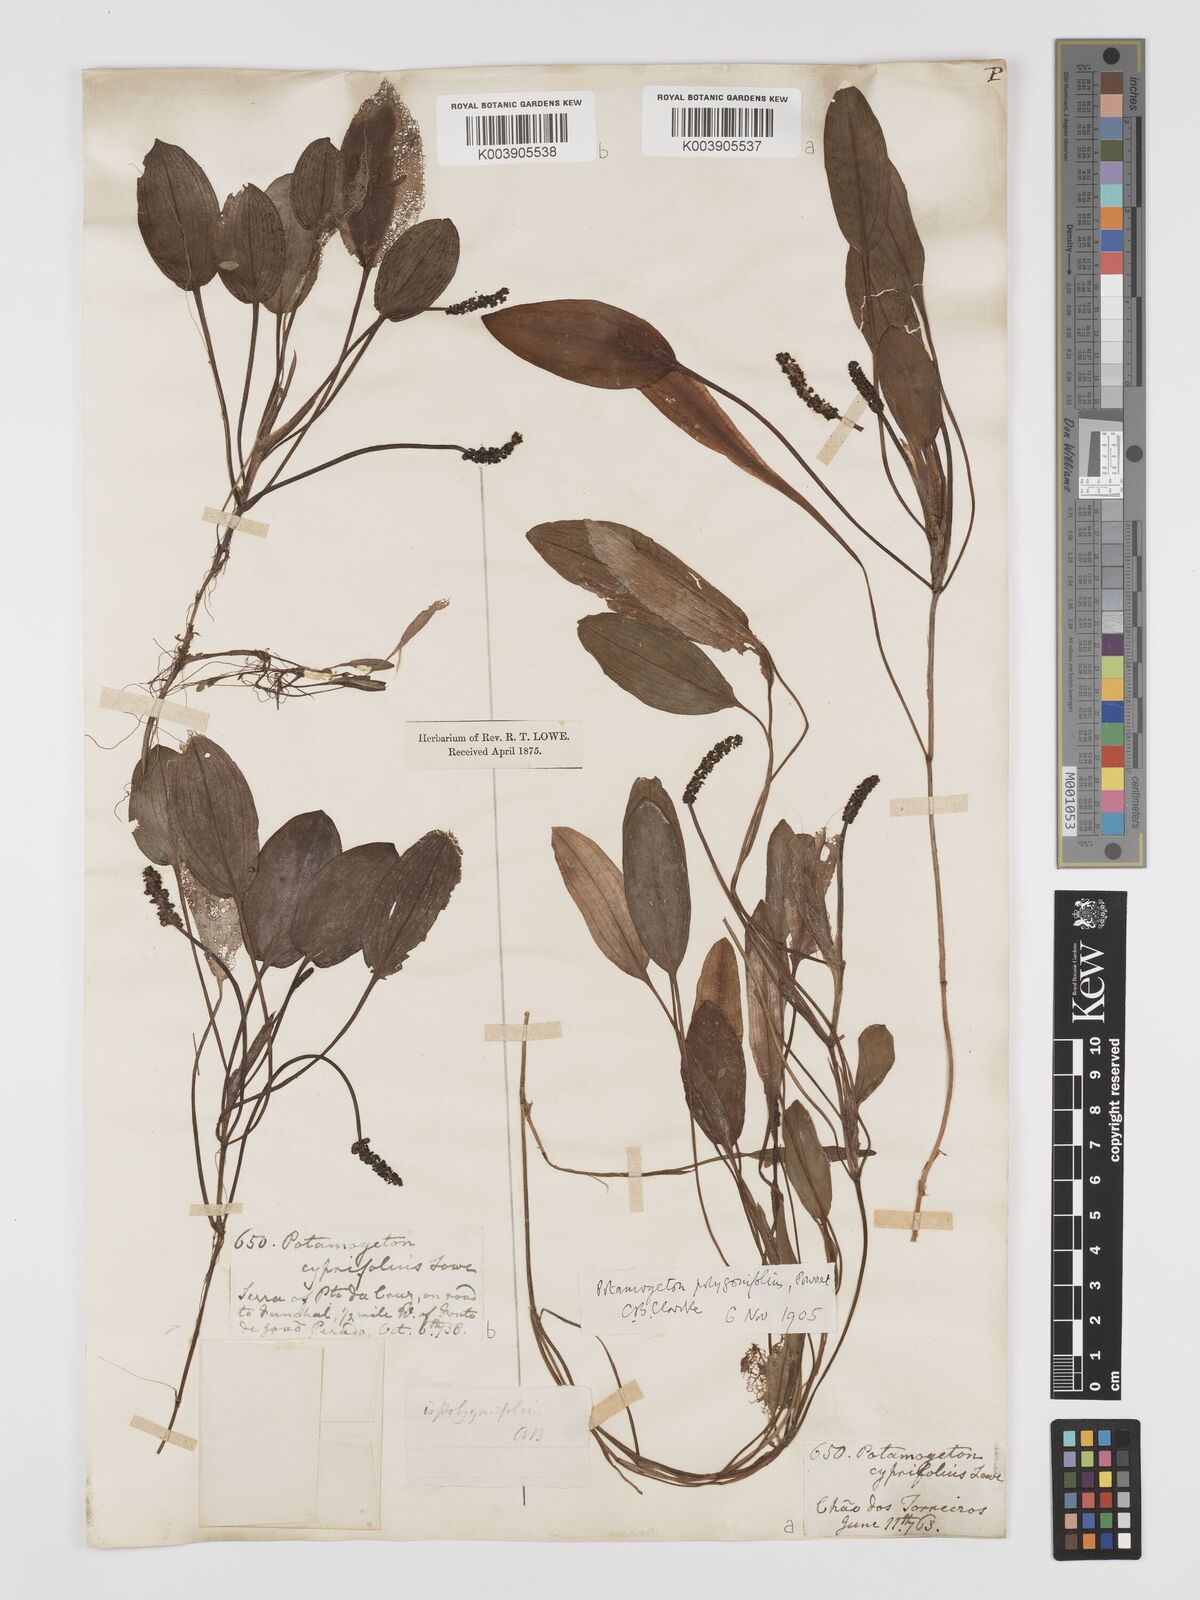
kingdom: Plantae
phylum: Tracheophyta
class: Liliopsida
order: Alismatales
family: Potamogetonaceae
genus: Potamogeton
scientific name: Potamogeton polygonifolius
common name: Bog pondweed
